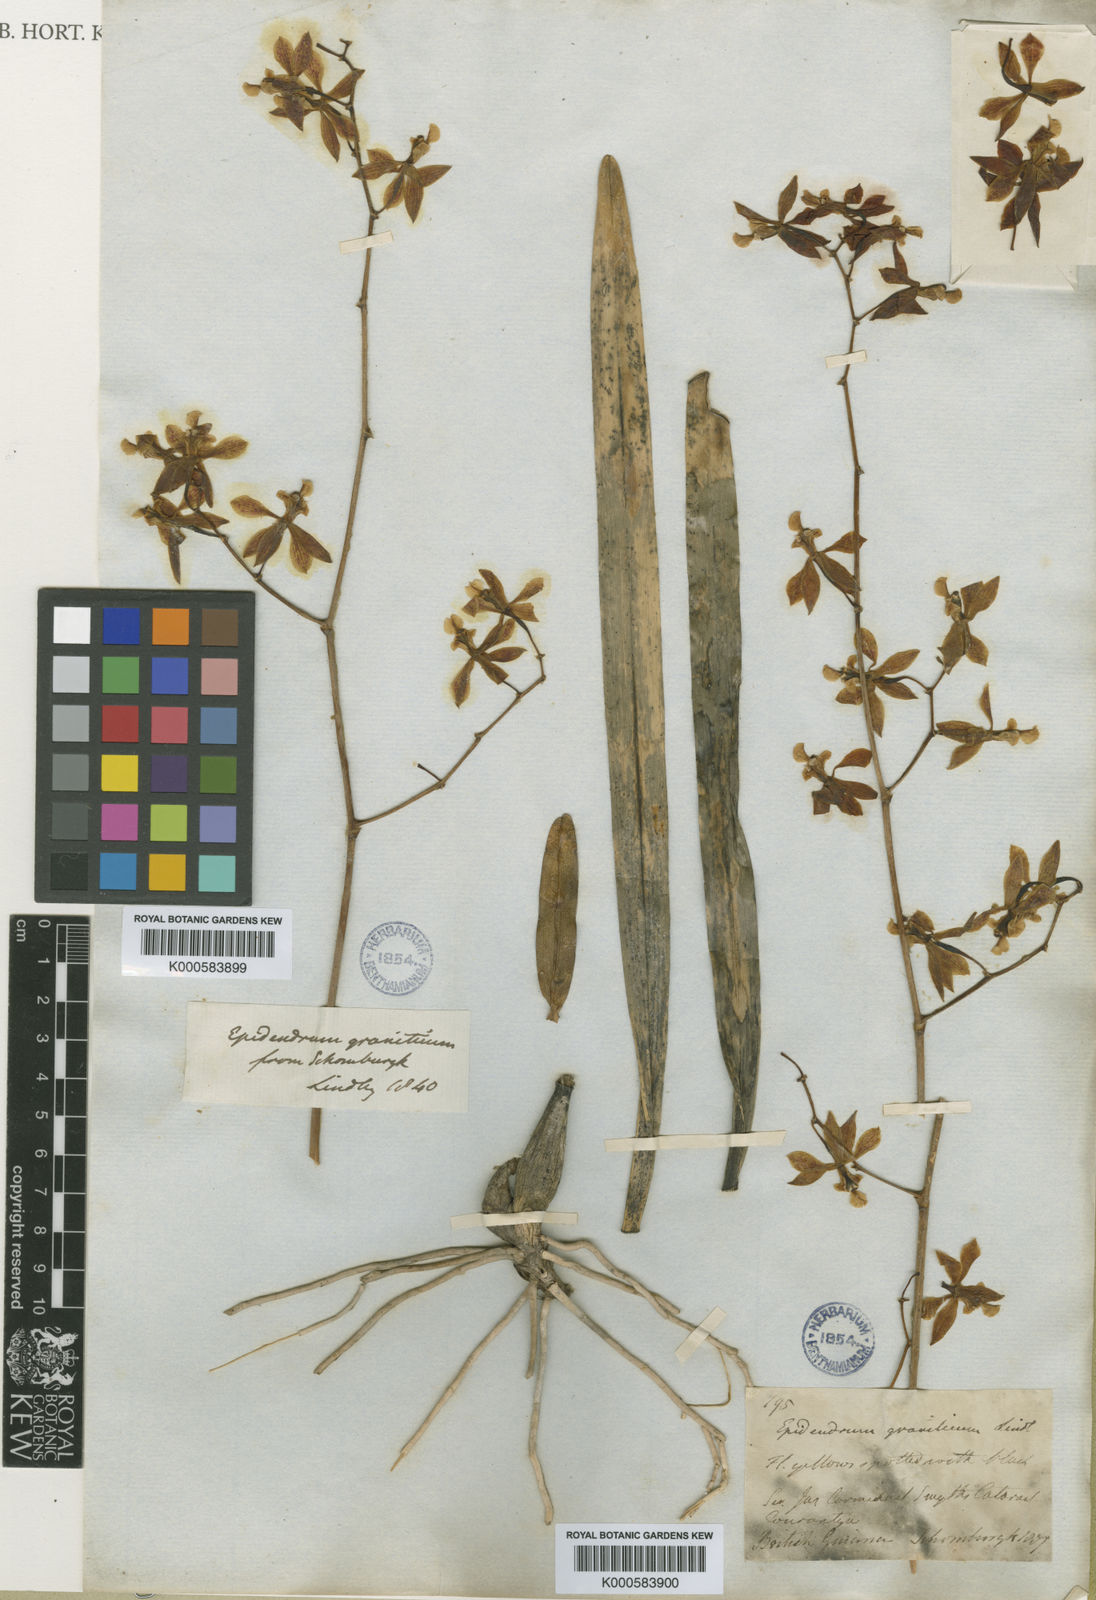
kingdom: Plantae
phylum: Tracheophyta
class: Liliopsida
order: Asparagales
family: Orchidaceae
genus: Encyclia
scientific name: Encyclia oncidioides
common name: Heavyfruit butterfly orchid
